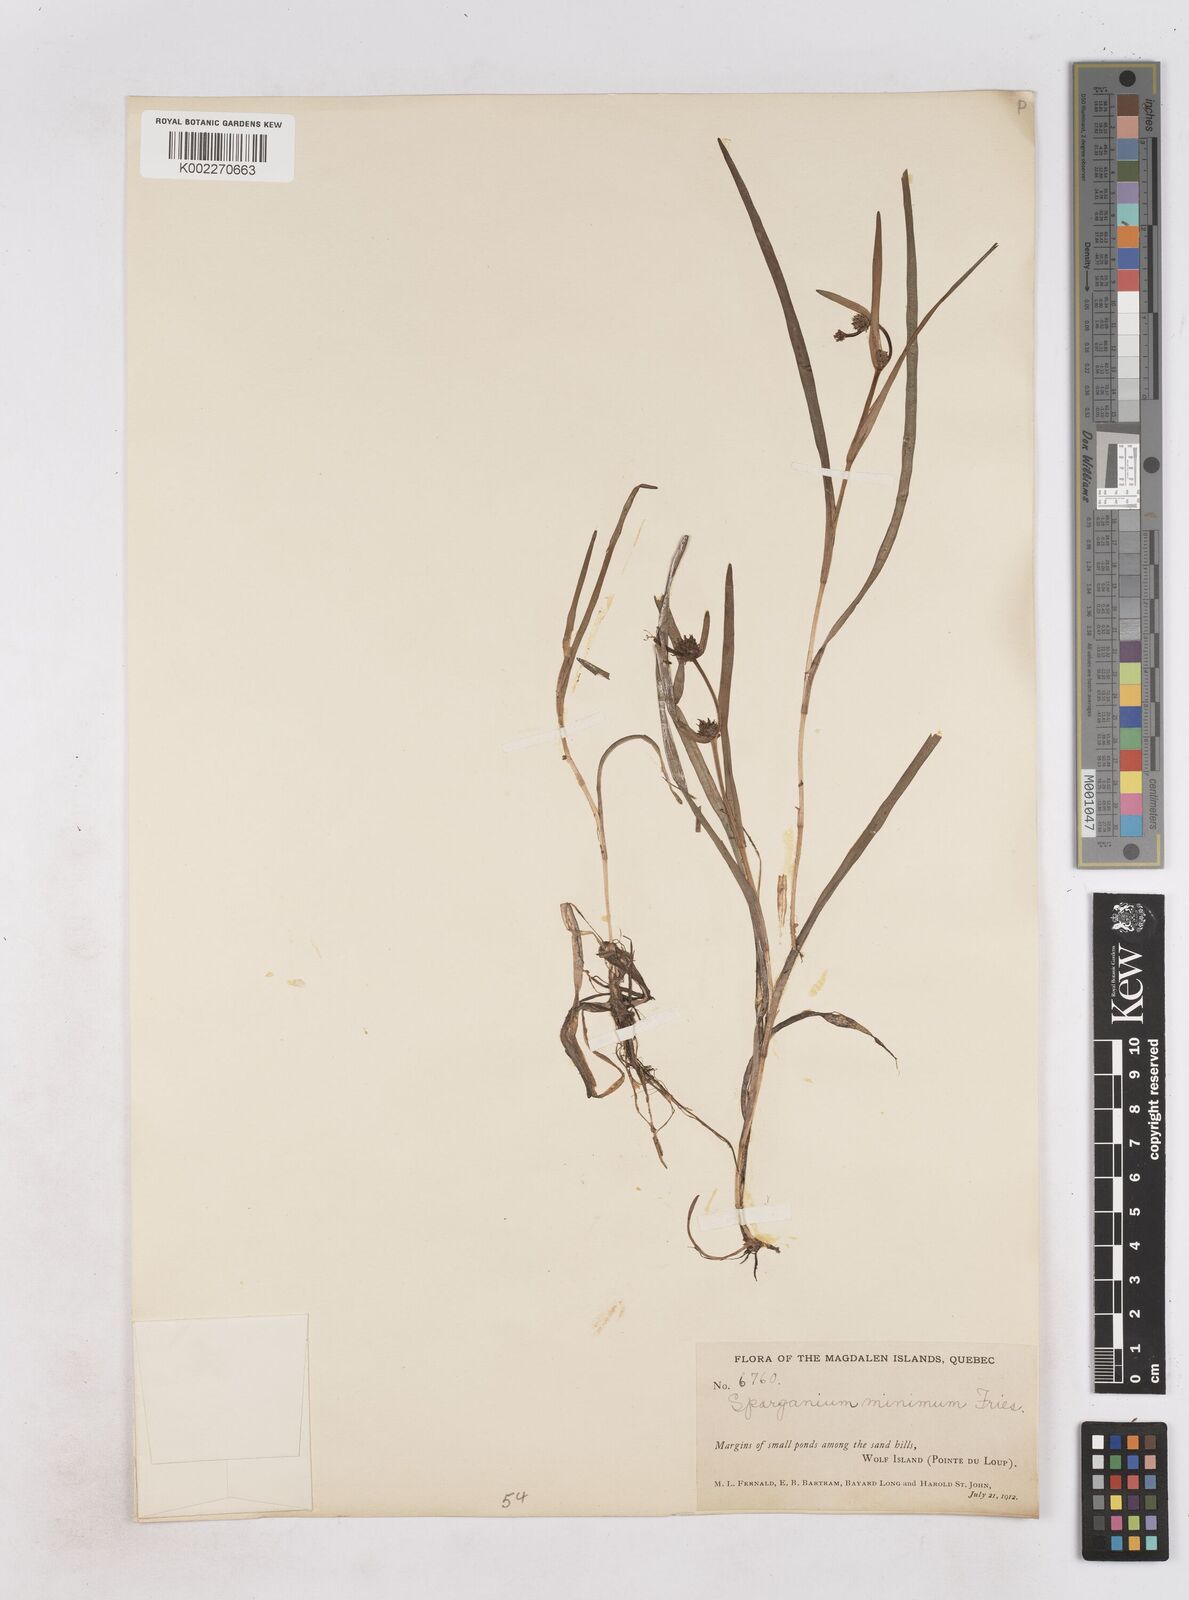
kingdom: Plantae
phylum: Tracheophyta
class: Liliopsida
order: Poales
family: Typhaceae
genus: Sparganium
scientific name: Sparganium natans
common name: Least bur-reed
